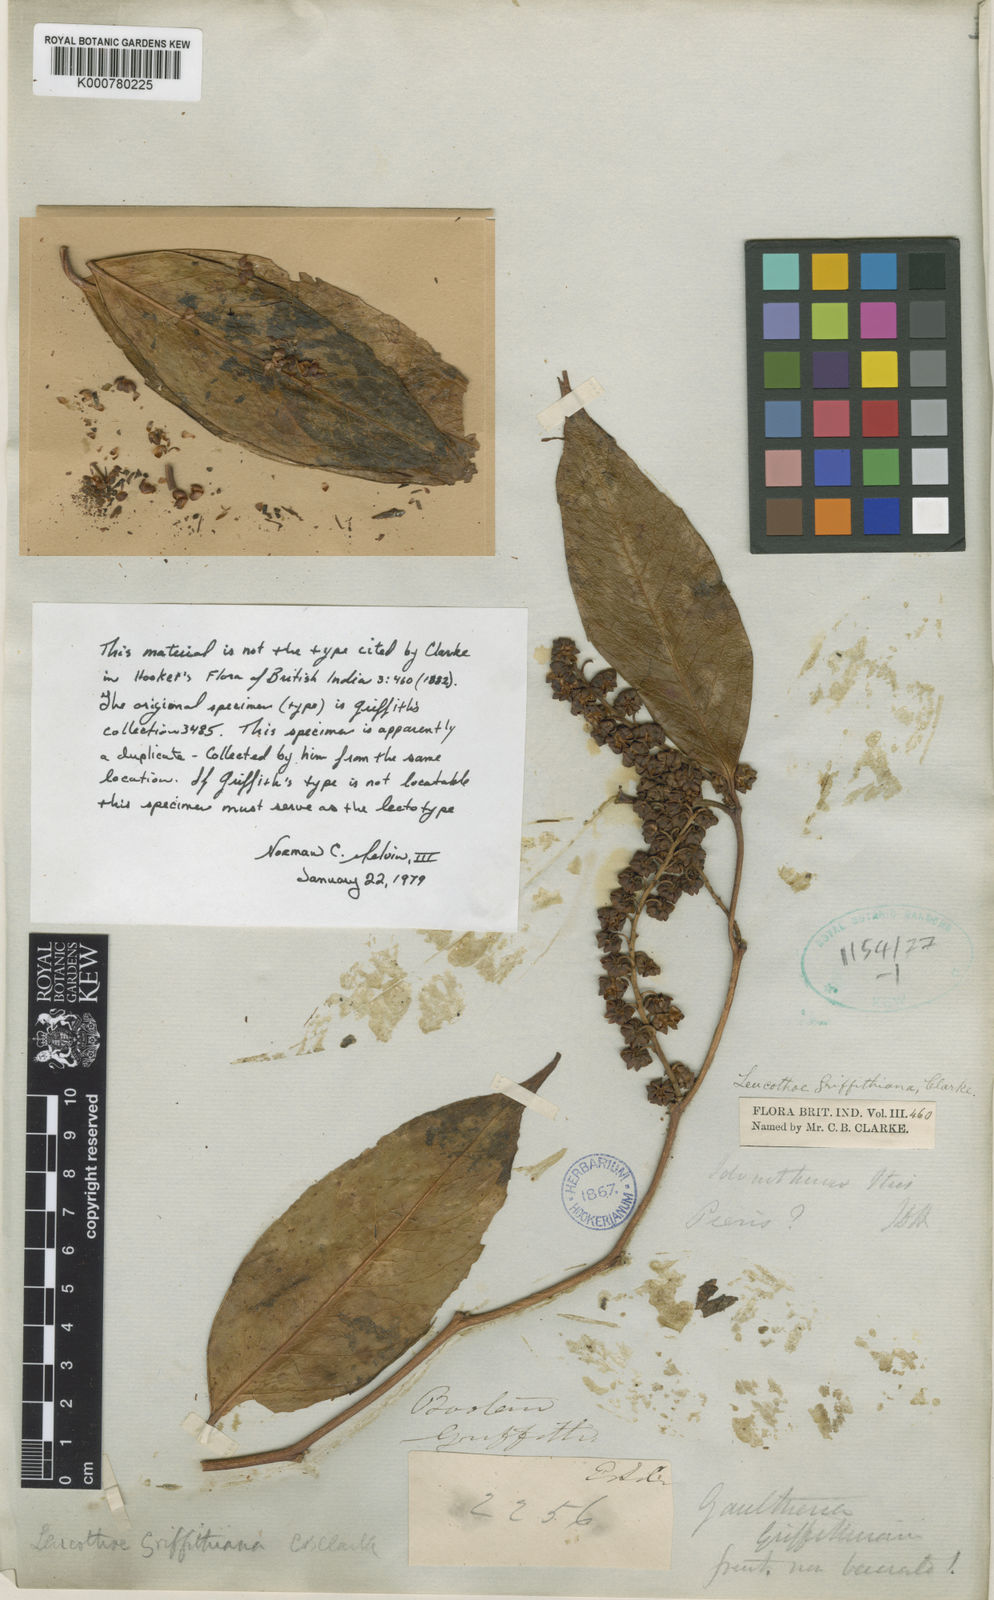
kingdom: Plantae
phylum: Tracheophyta
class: Magnoliopsida
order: Ericales
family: Ericaceae
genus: Leucothoe
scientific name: Leucothoe griffithiana
